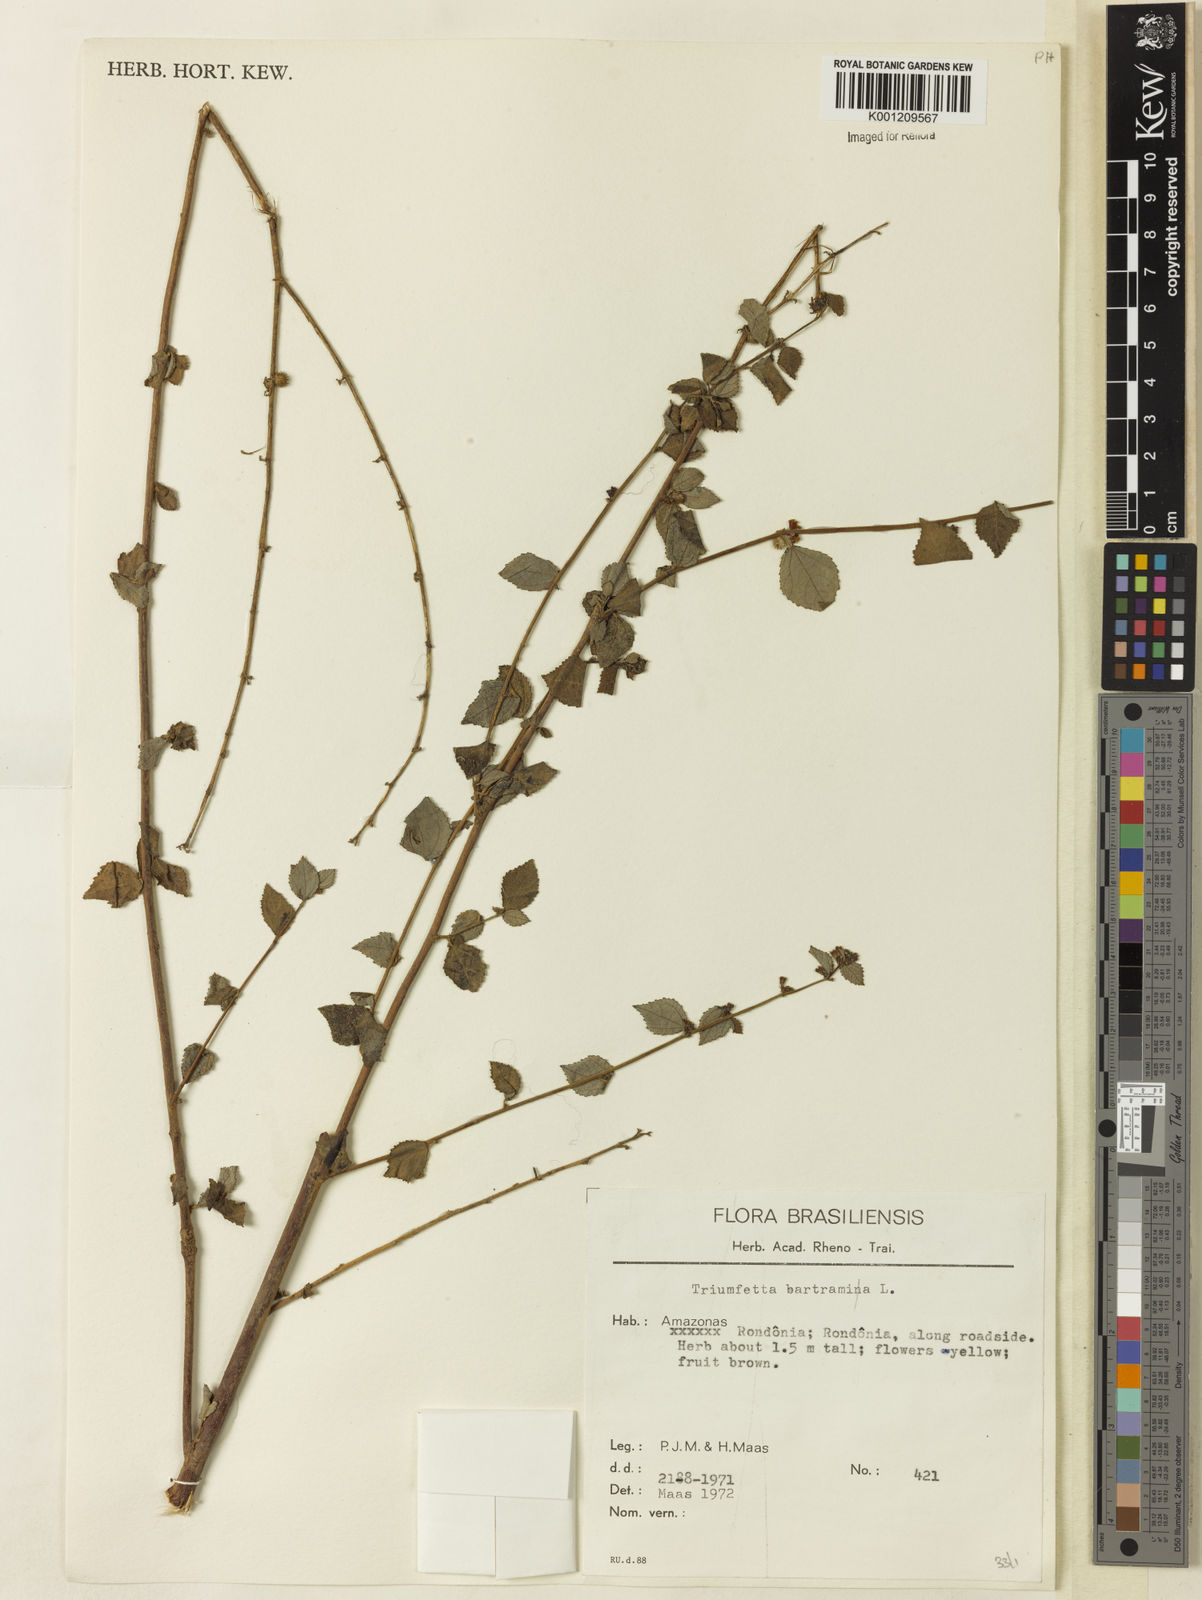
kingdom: Plantae
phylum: Tracheophyta
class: Magnoliopsida
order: Malvales
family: Malvaceae
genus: Triumfetta
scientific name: Triumfetta rhomboidea
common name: Diamond burbark
